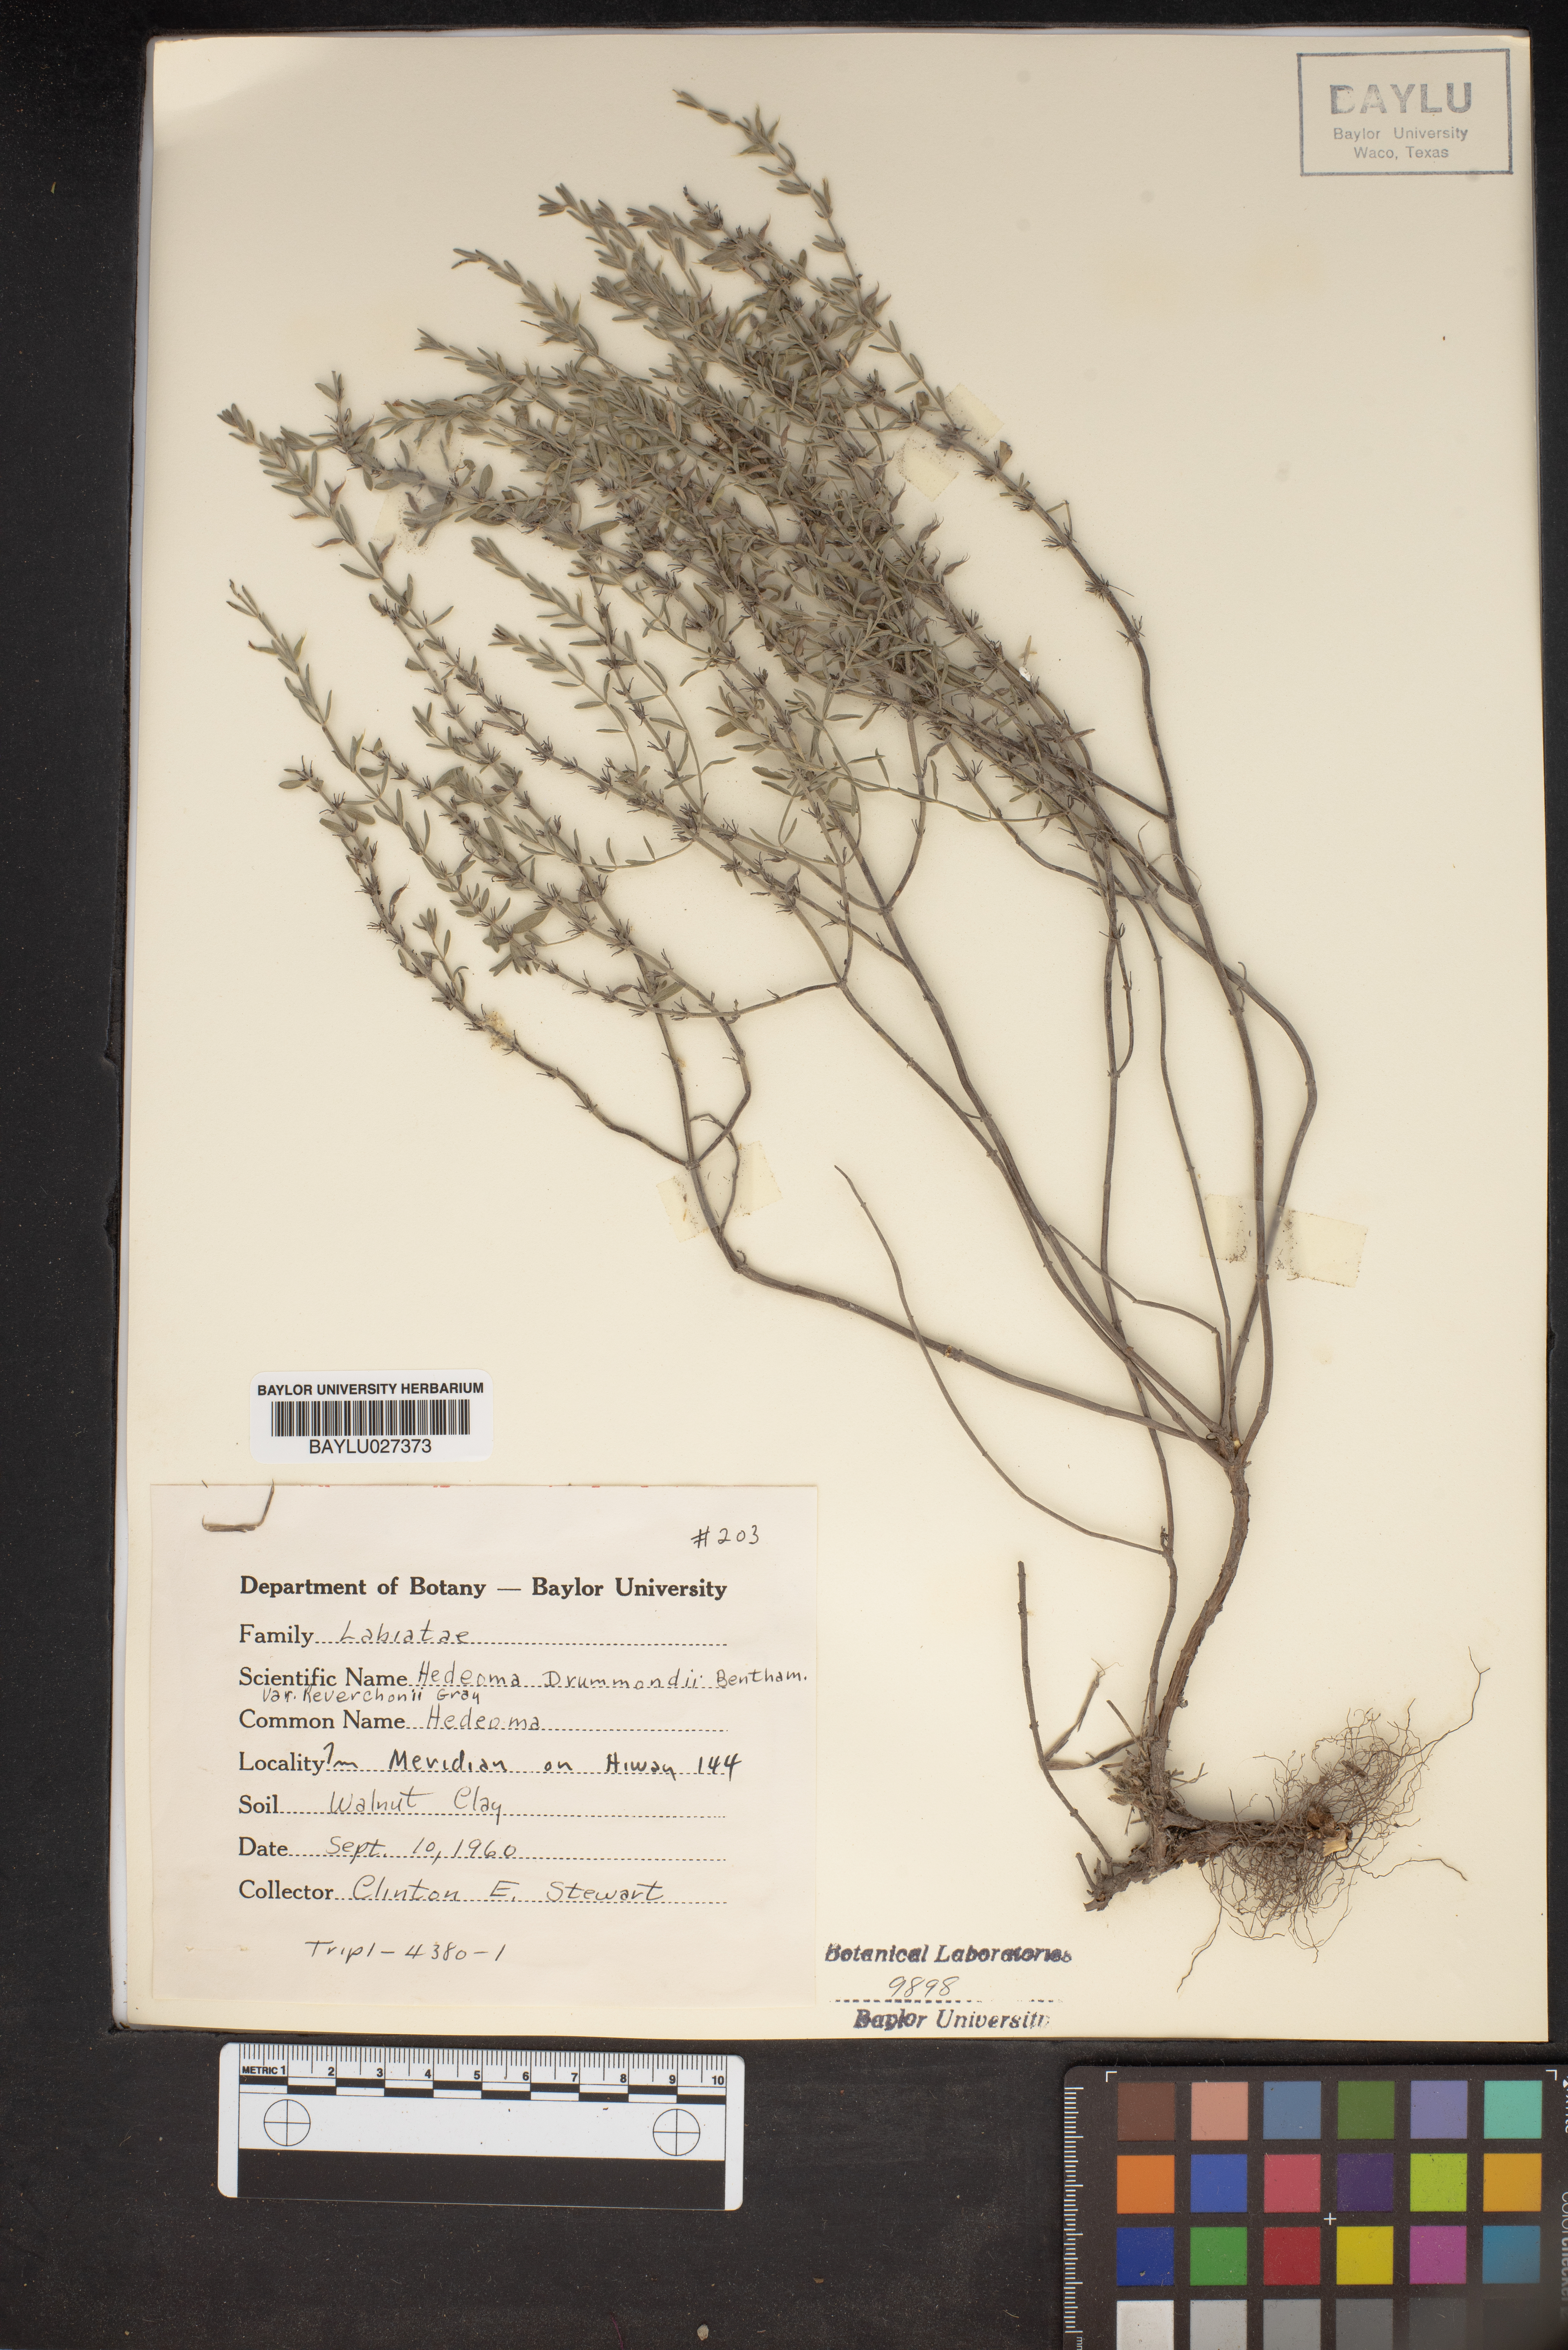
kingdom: Plantae
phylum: Tracheophyta
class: Magnoliopsida
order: Lamiales
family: Lamiaceae
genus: Hedeoma
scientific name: Hedeoma drummondii
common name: New mexico pennyroyal
